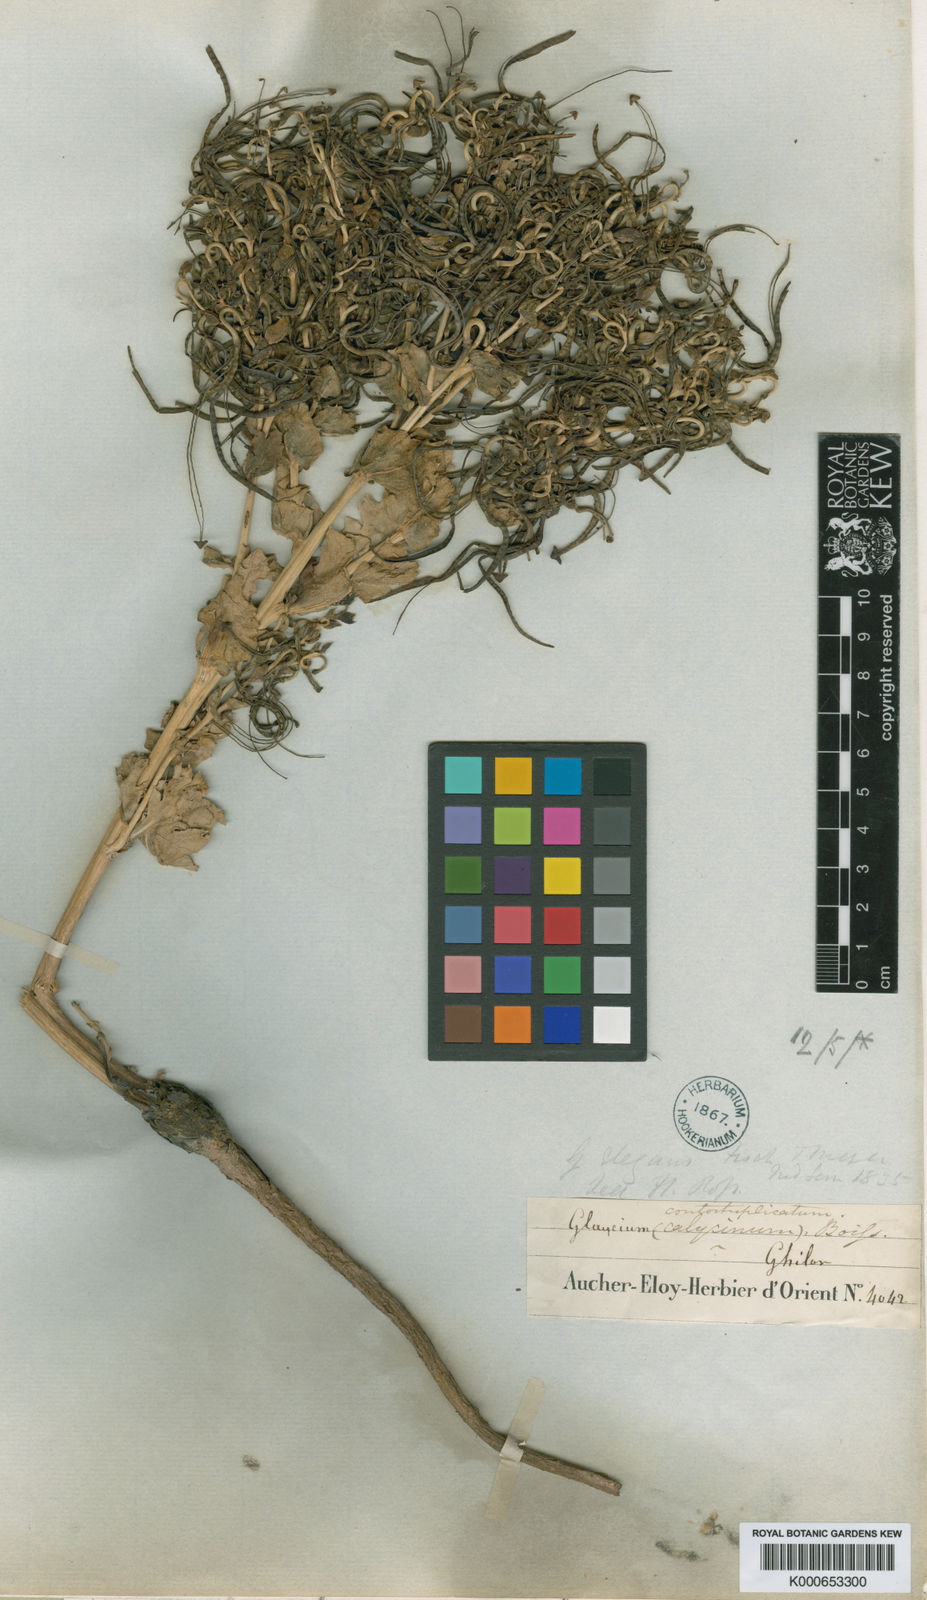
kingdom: Plantae
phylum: Tracheophyta
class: Magnoliopsida
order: Ranunculales
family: Papaveraceae
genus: Glaucium
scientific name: Glaucium contortuplicatum
